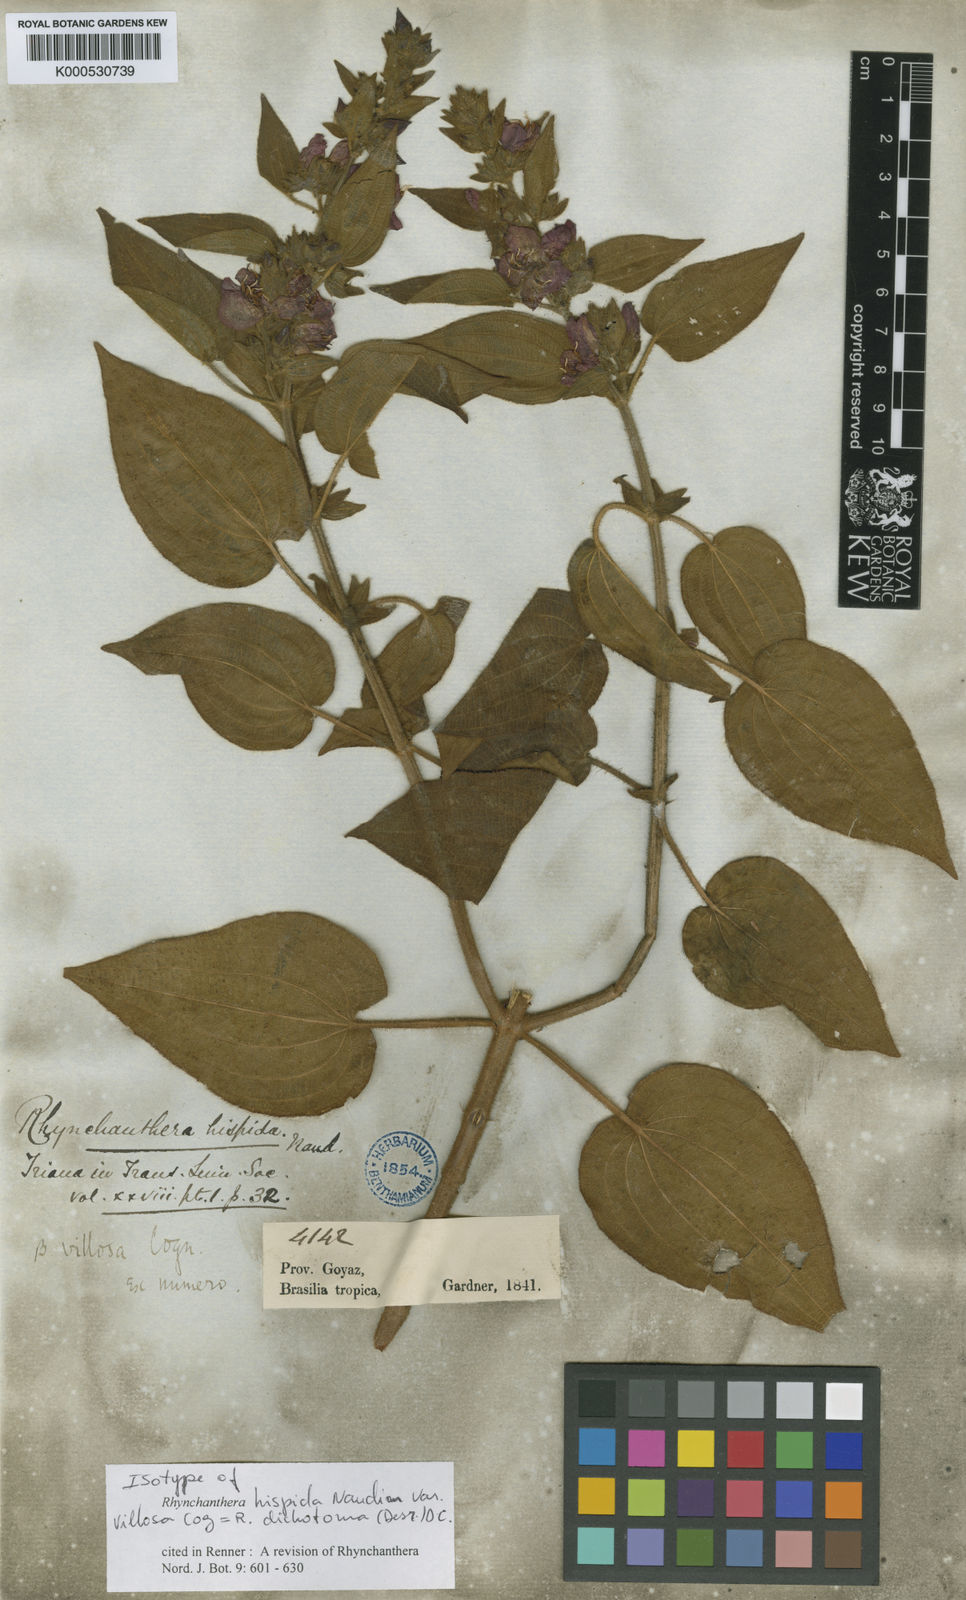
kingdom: Plantae
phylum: Tracheophyta
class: Magnoliopsida
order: Myrtales
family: Melastomataceae
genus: Rhynchanthera
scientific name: Rhynchanthera dichotoma
